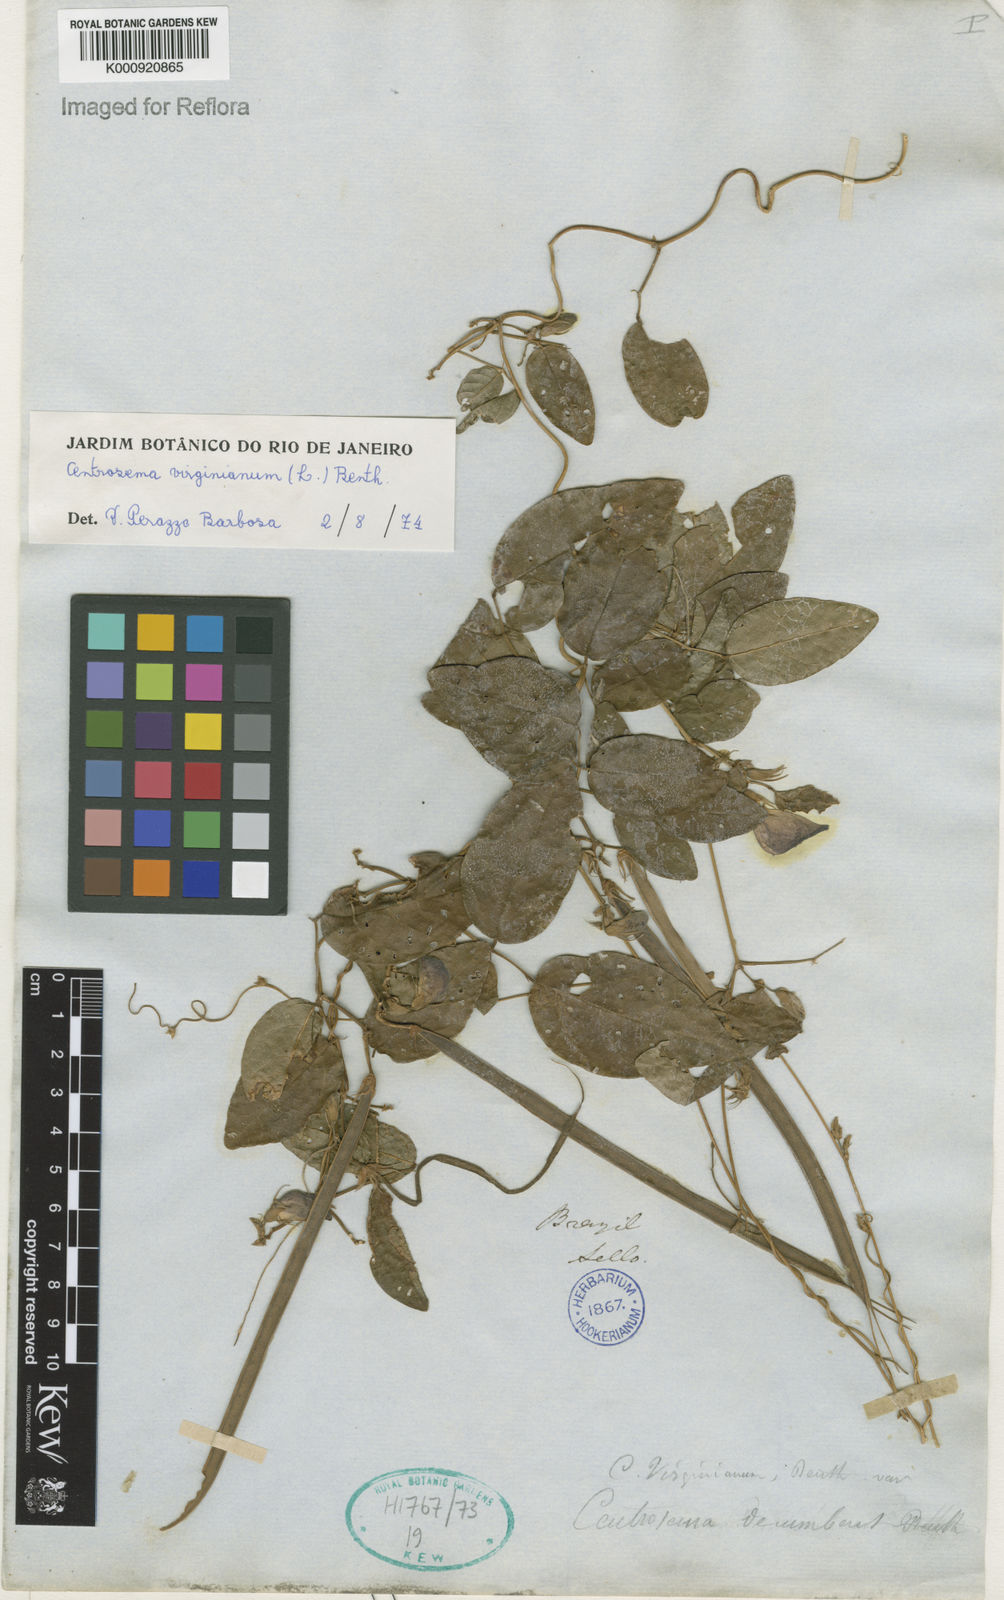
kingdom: Plantae
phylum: Tracheophyta
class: Magnoliopsida
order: Fabales
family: Fabaceae
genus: Centrosema
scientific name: Centrosema virginianum
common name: Butterfly-pea
